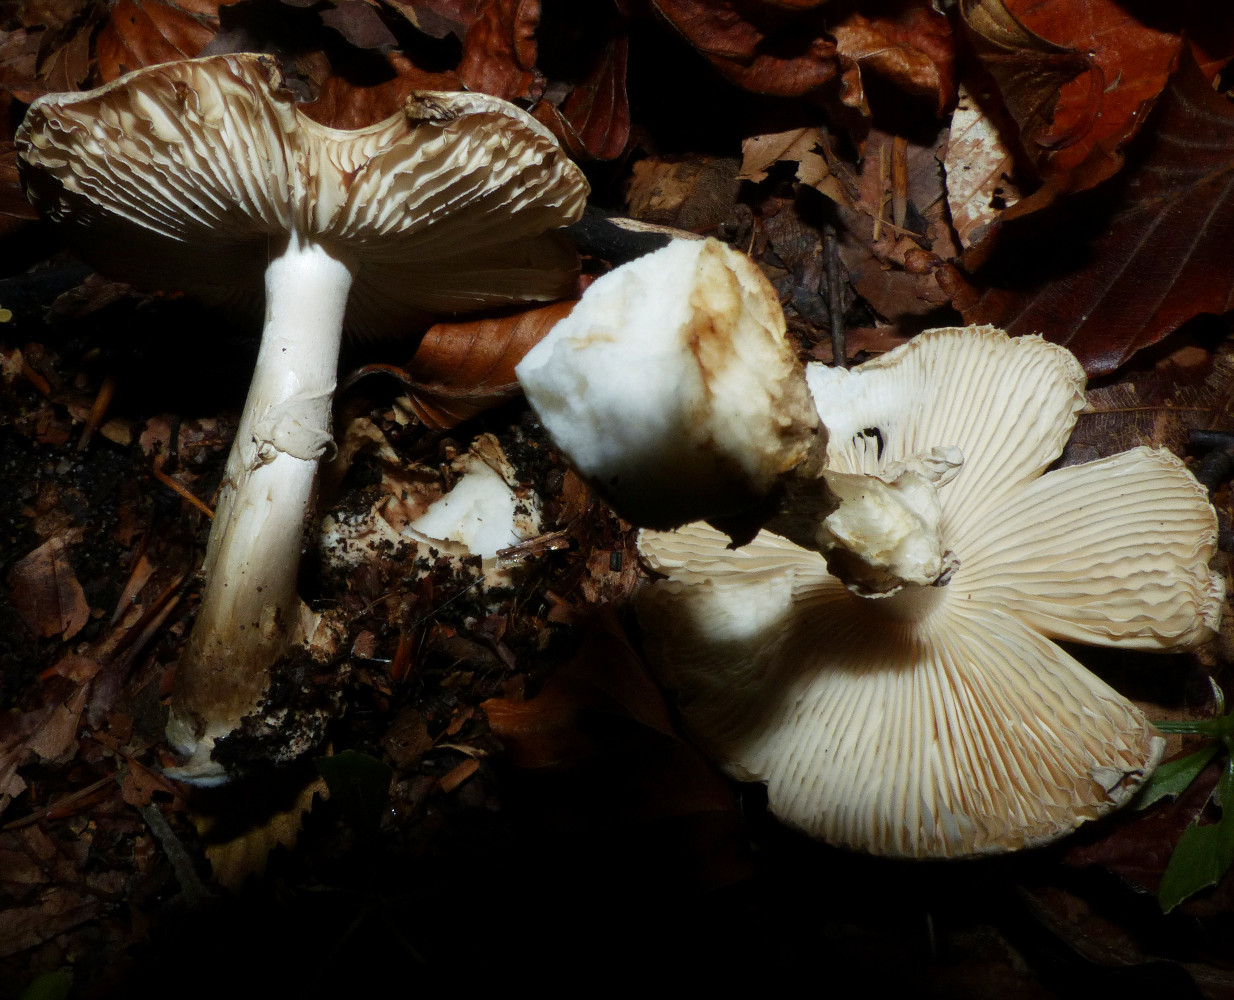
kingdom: Fungi
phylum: Basidiomycota
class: Agaricomycetes
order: Agaricales
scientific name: Agaricales
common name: champignonordenen
